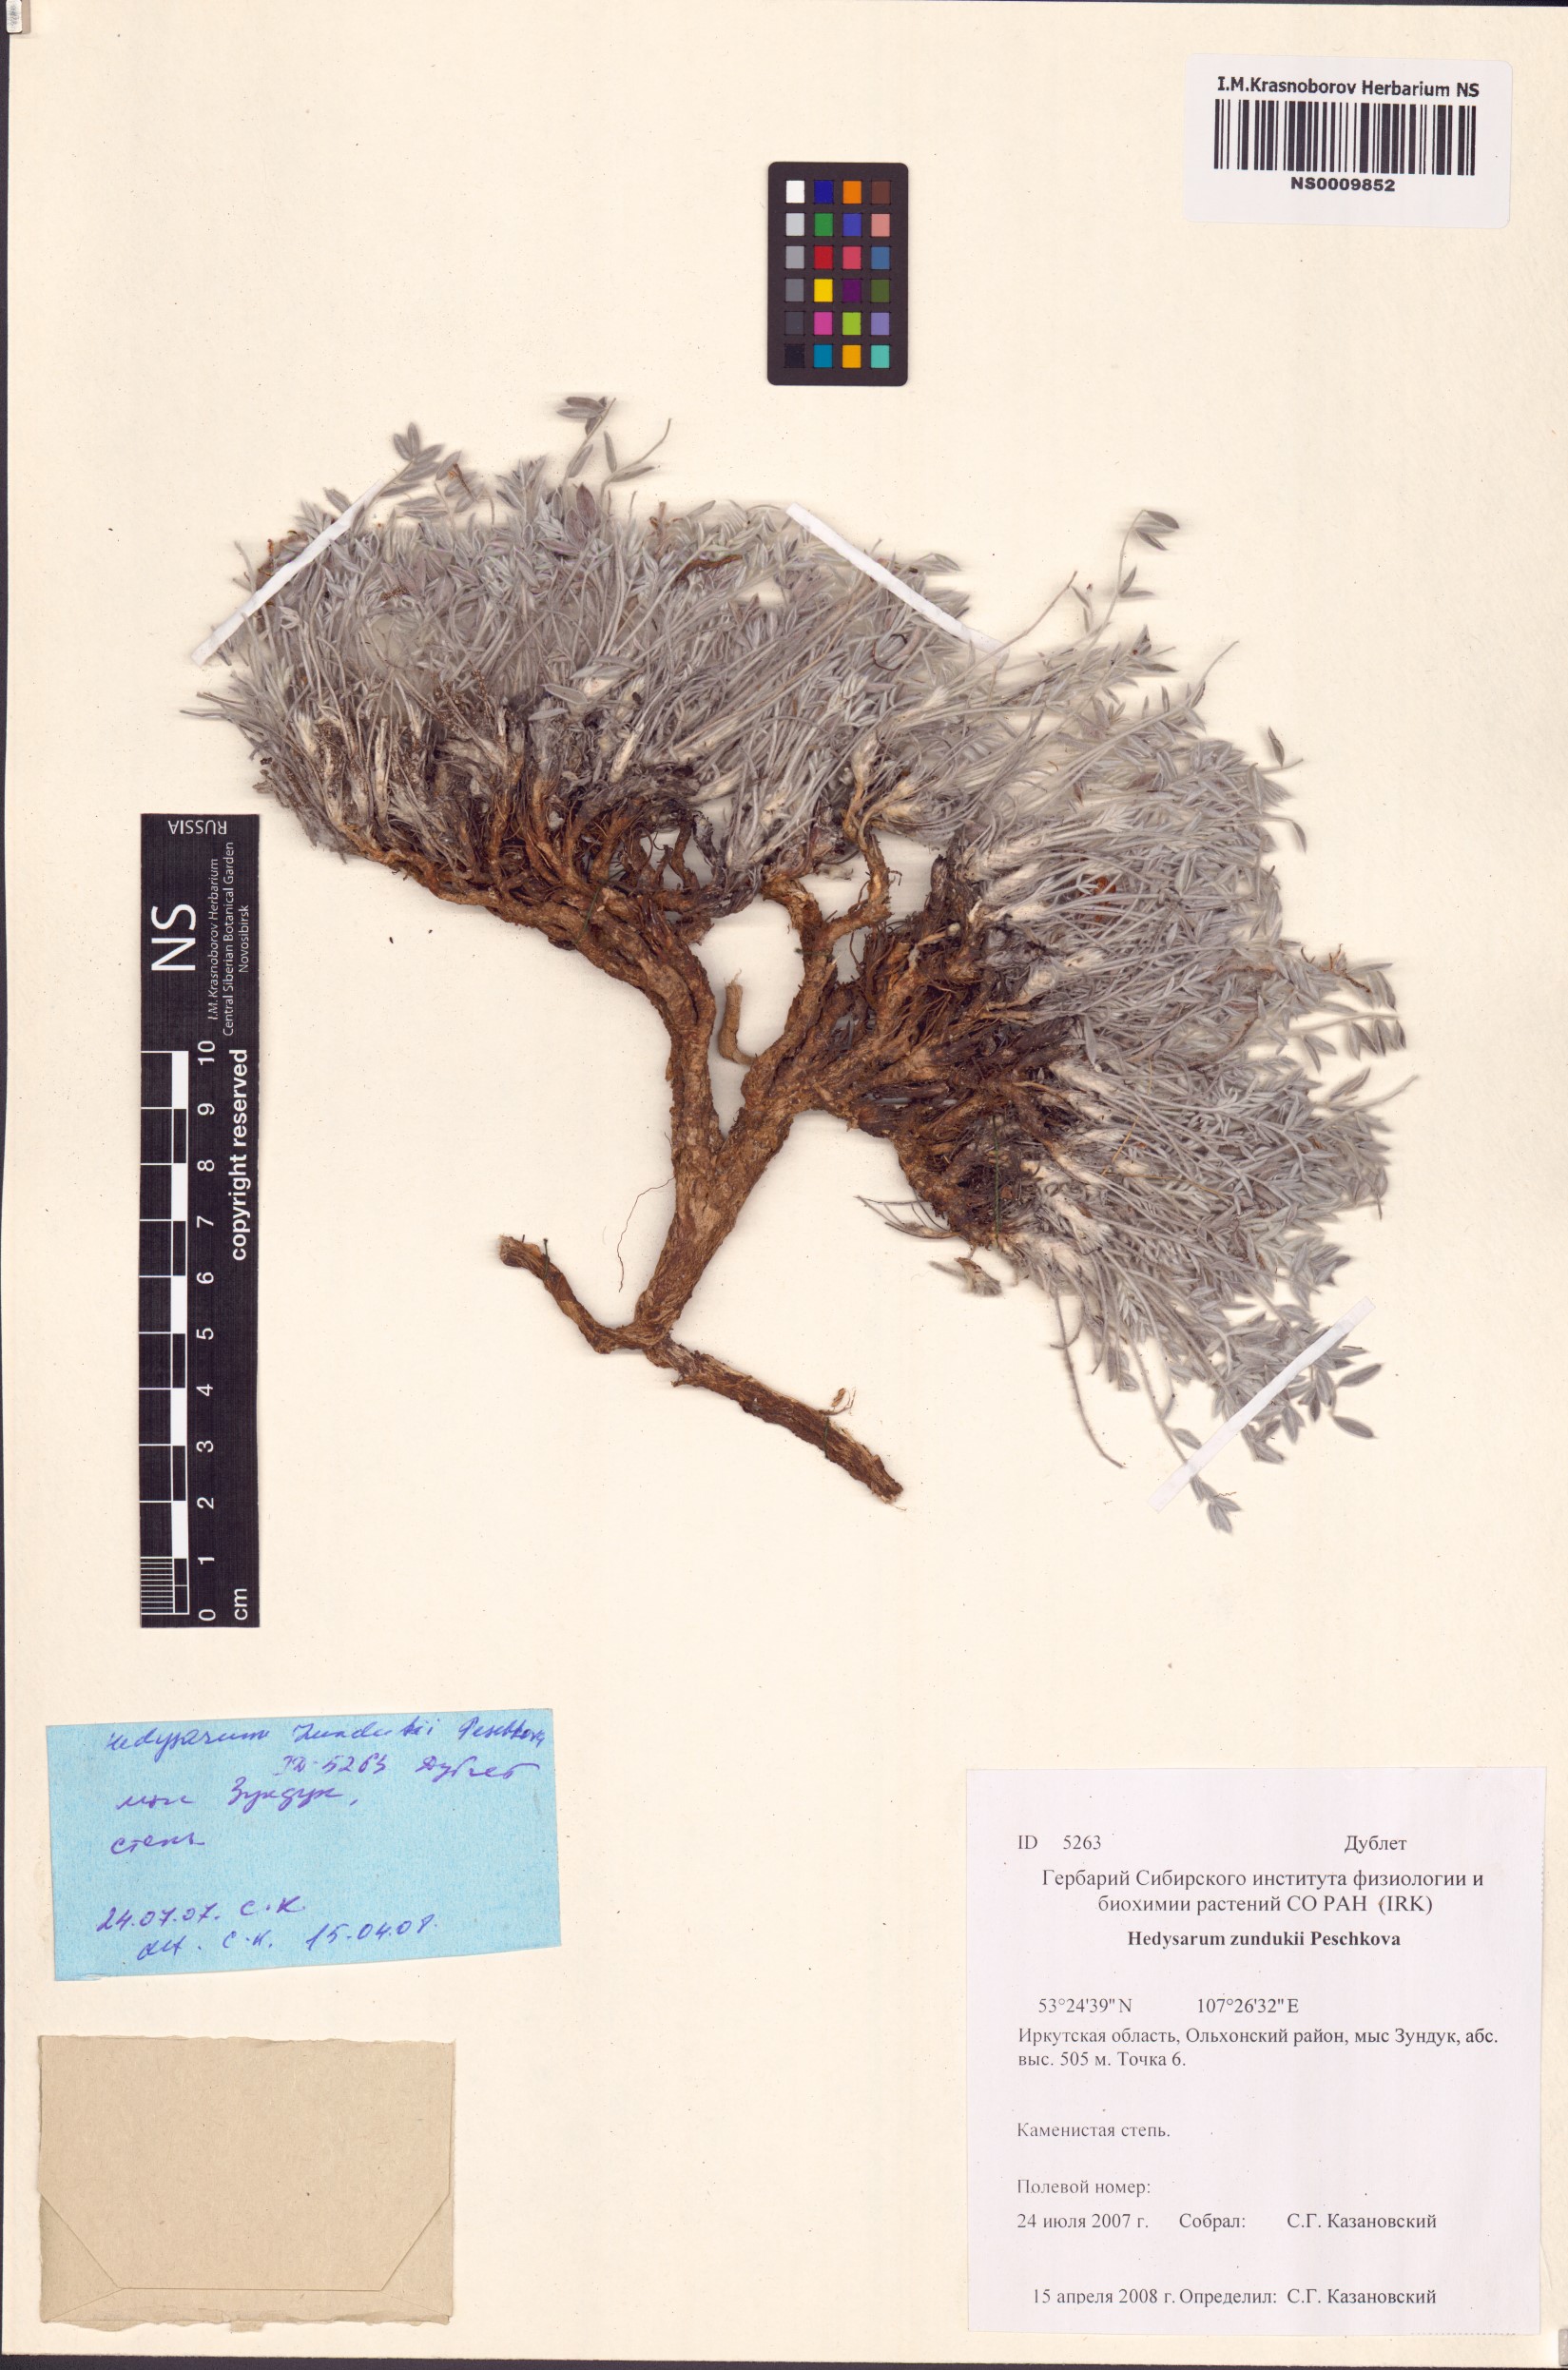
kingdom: Plantae
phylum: Tracheophyta
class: Magnoliopsida
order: Fabales
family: Fabaceae
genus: Hedysarum
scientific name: Hedysarum zundukii
